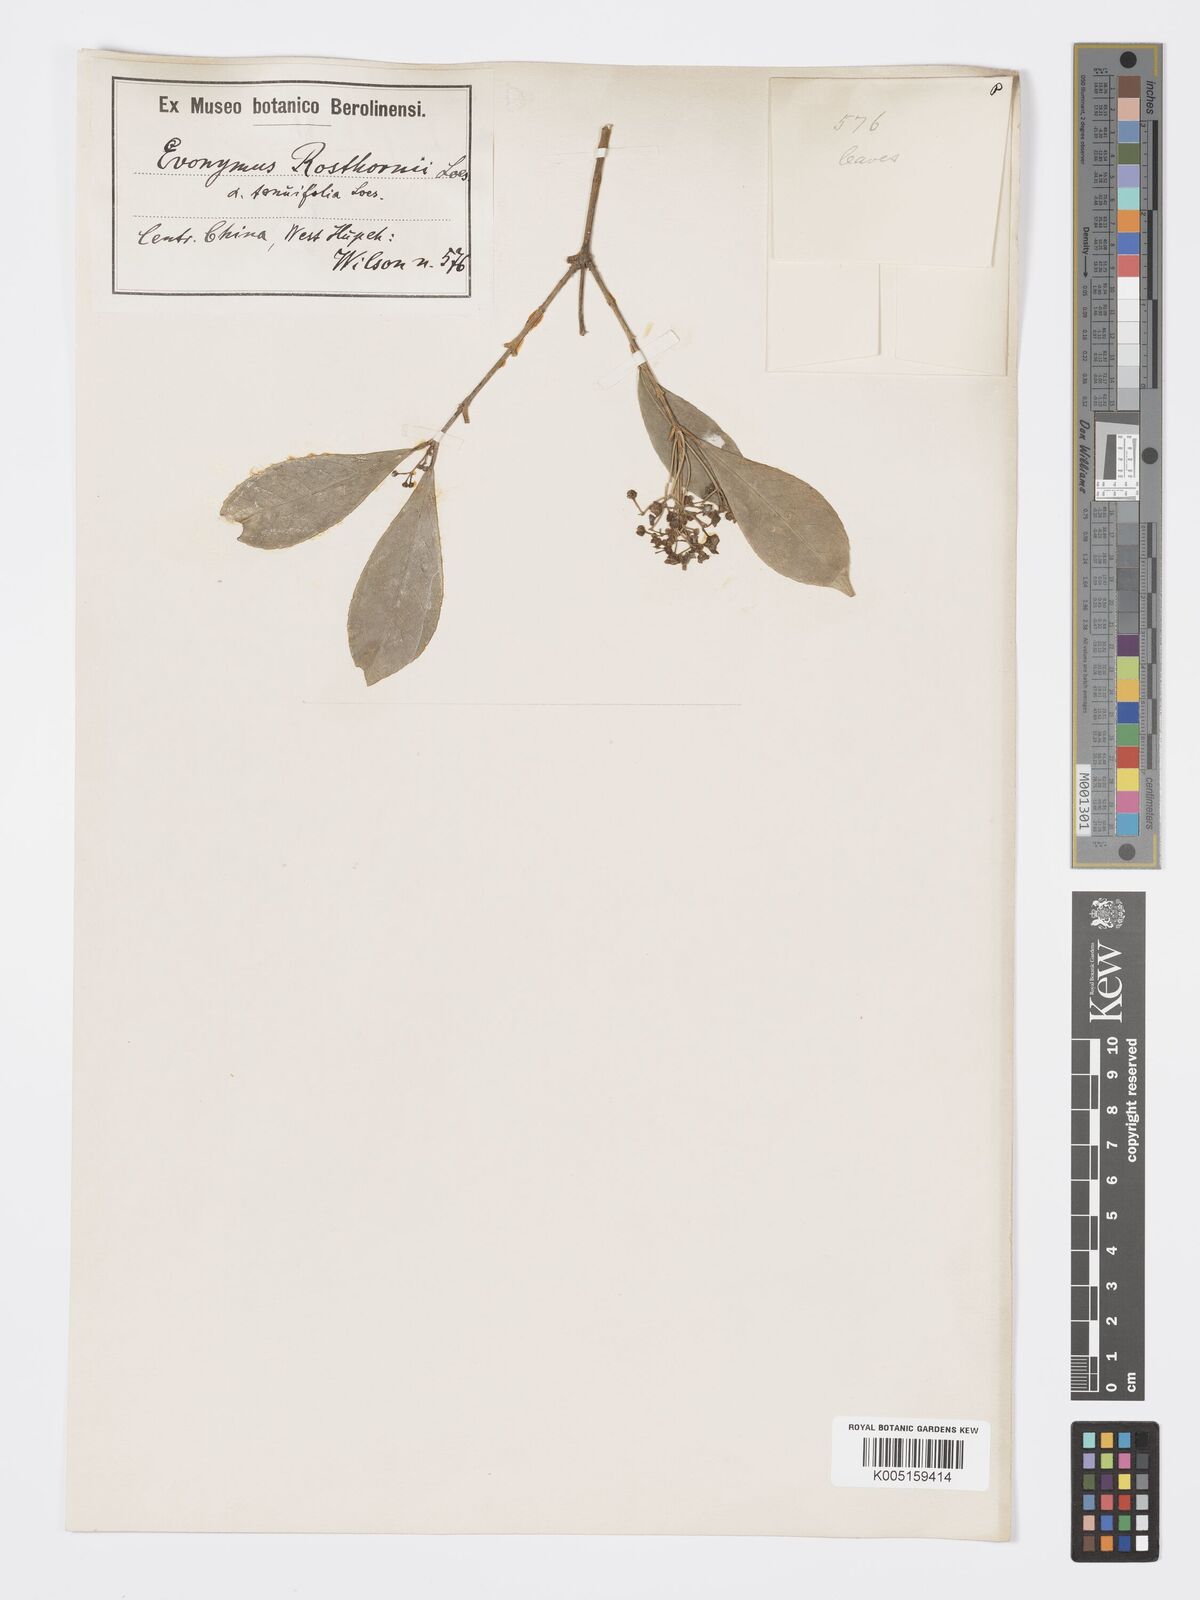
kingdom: Plantae
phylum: Tracheophyta
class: Magnoliopsida
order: Celastrales
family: Celastraceae
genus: Euonymus
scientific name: Euonymus myrianthus
